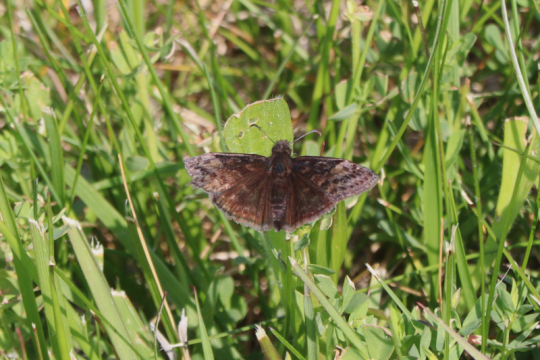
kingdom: Animalia
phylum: Arthropoda
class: Insecta
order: Lepidoptera
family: Hesperiidae
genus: Erynnis
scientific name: Erynnis
